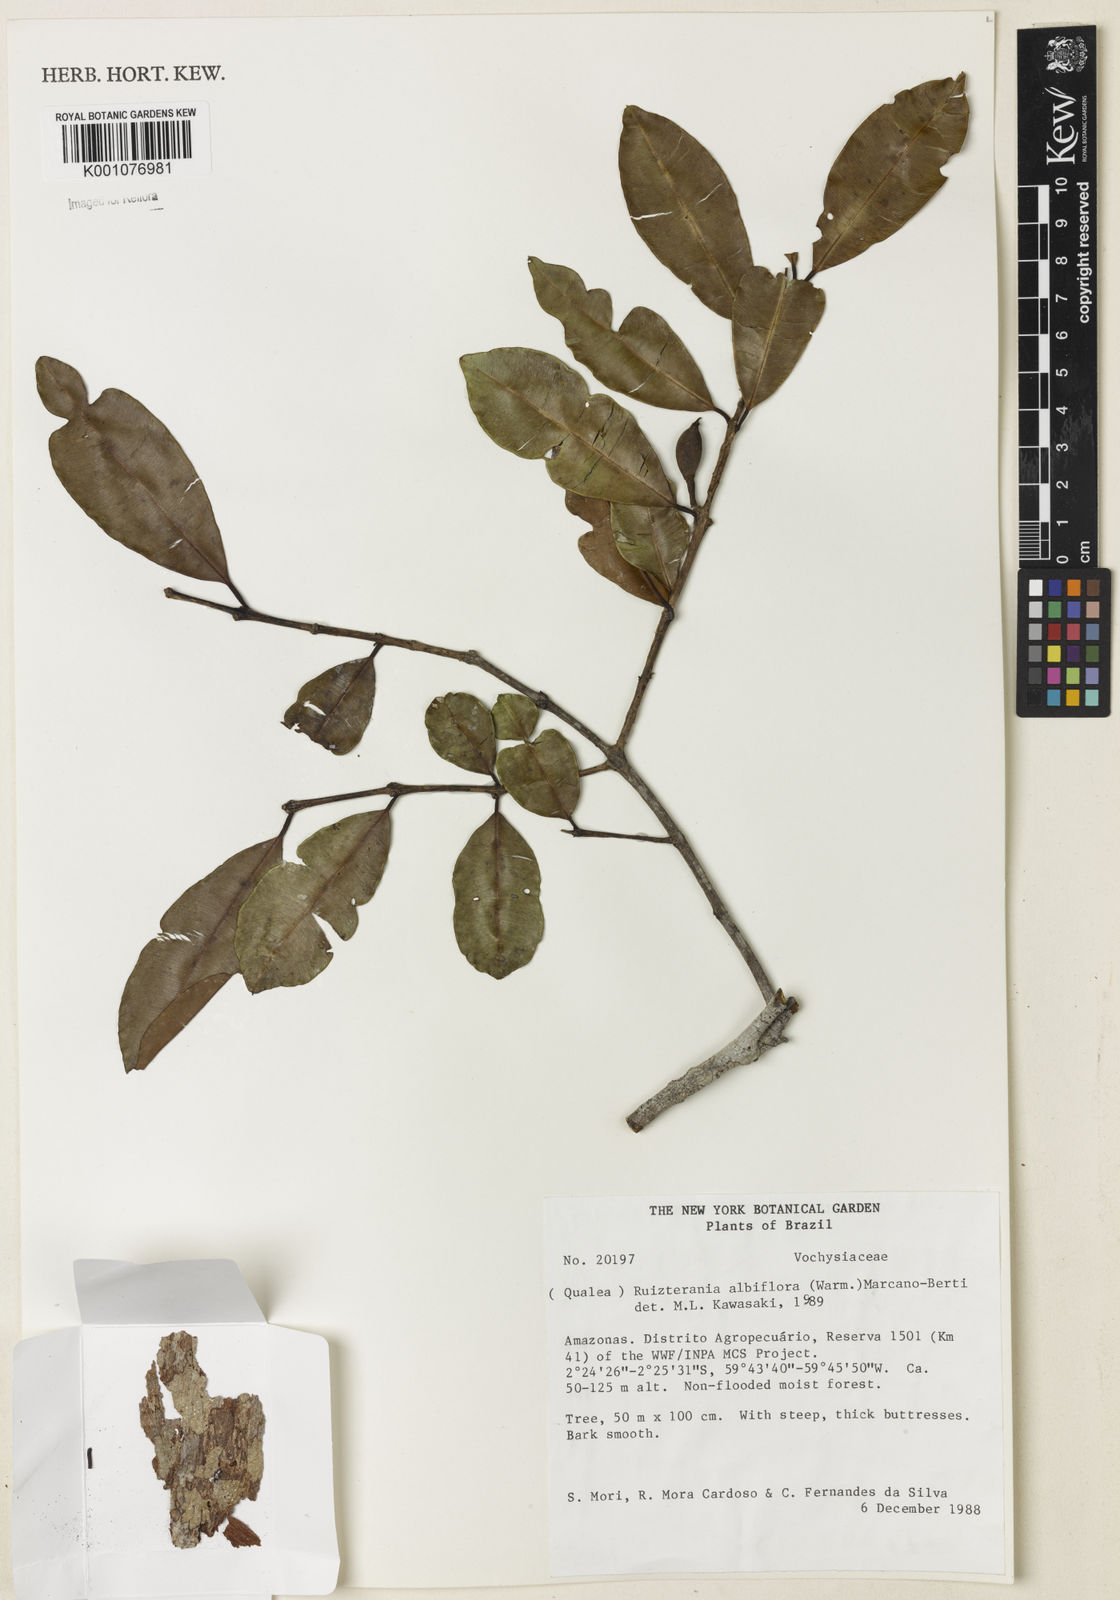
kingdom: Plantae
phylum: Tracheophyta
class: Magnoliopsida
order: Myrtales
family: Vochysiaceae
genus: Ruizterania
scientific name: Ruizterania albiflora
